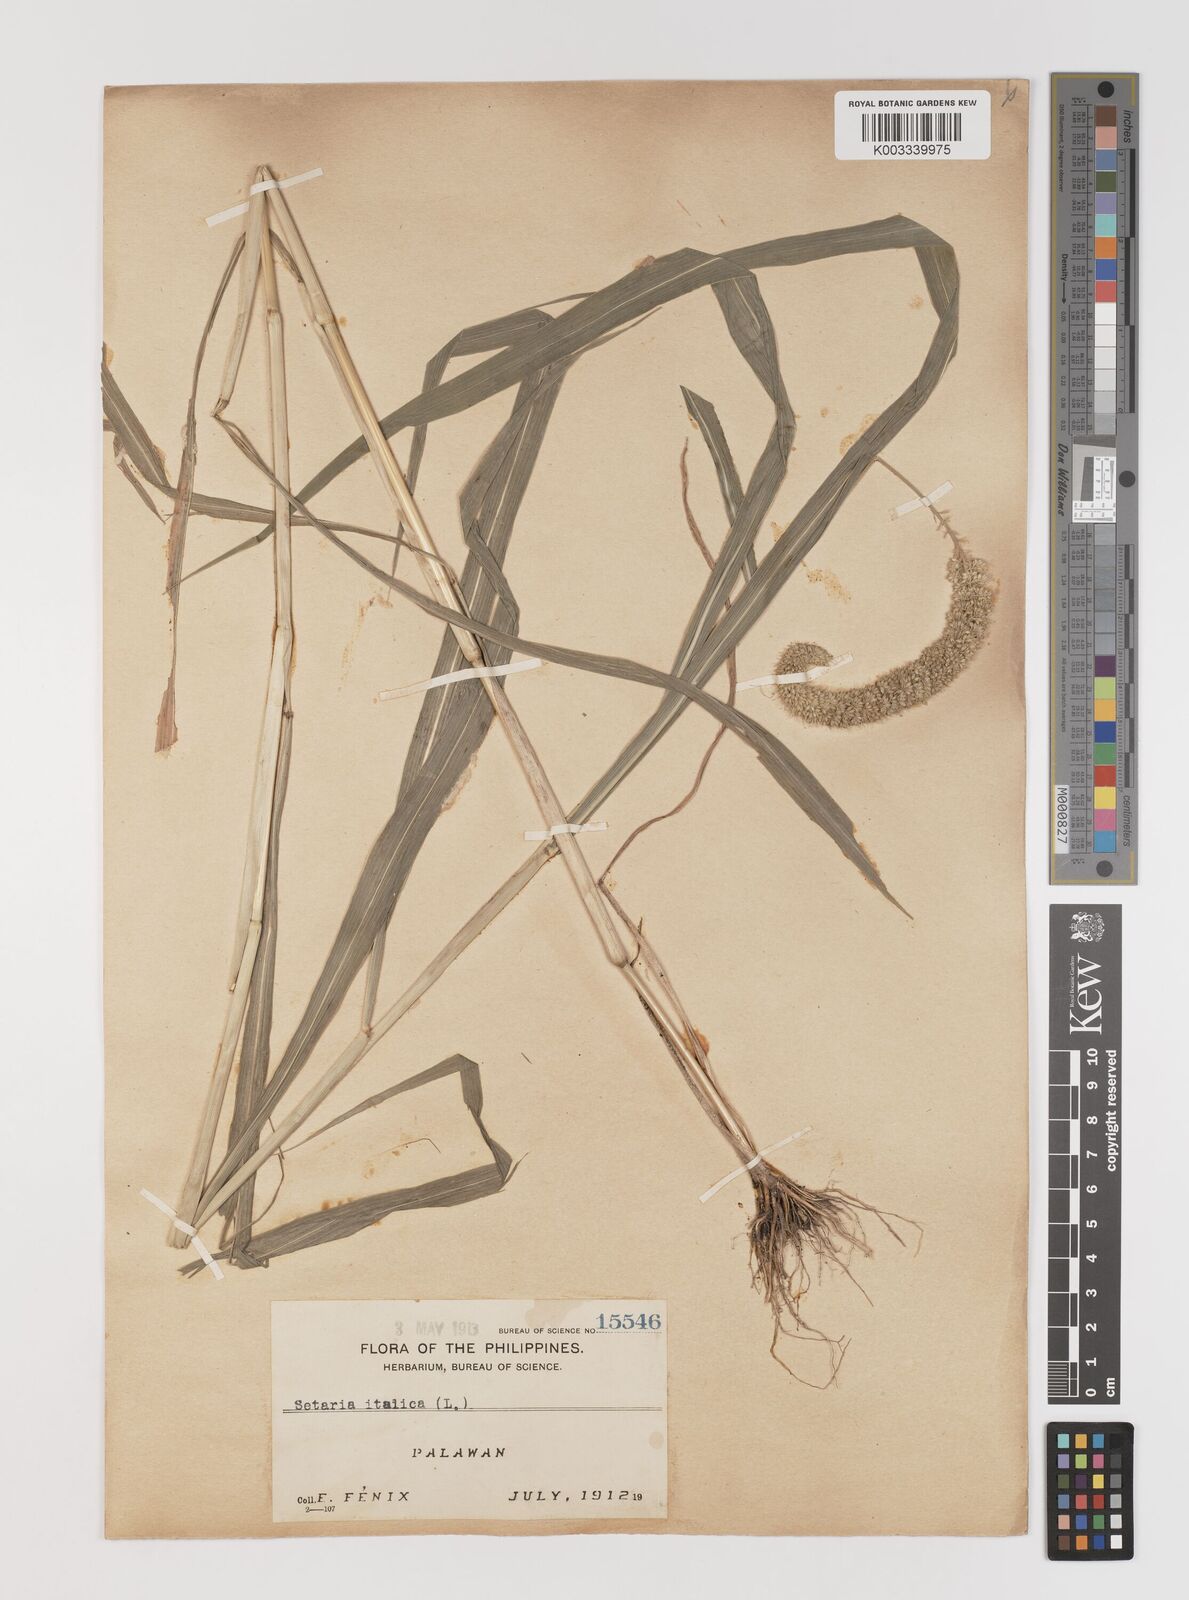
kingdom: Plantae
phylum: Tracheophyta
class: Liliopsida
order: Poales
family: Poaceae
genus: Setaria
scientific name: Setaria italica
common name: Foxtail bristle-grass
